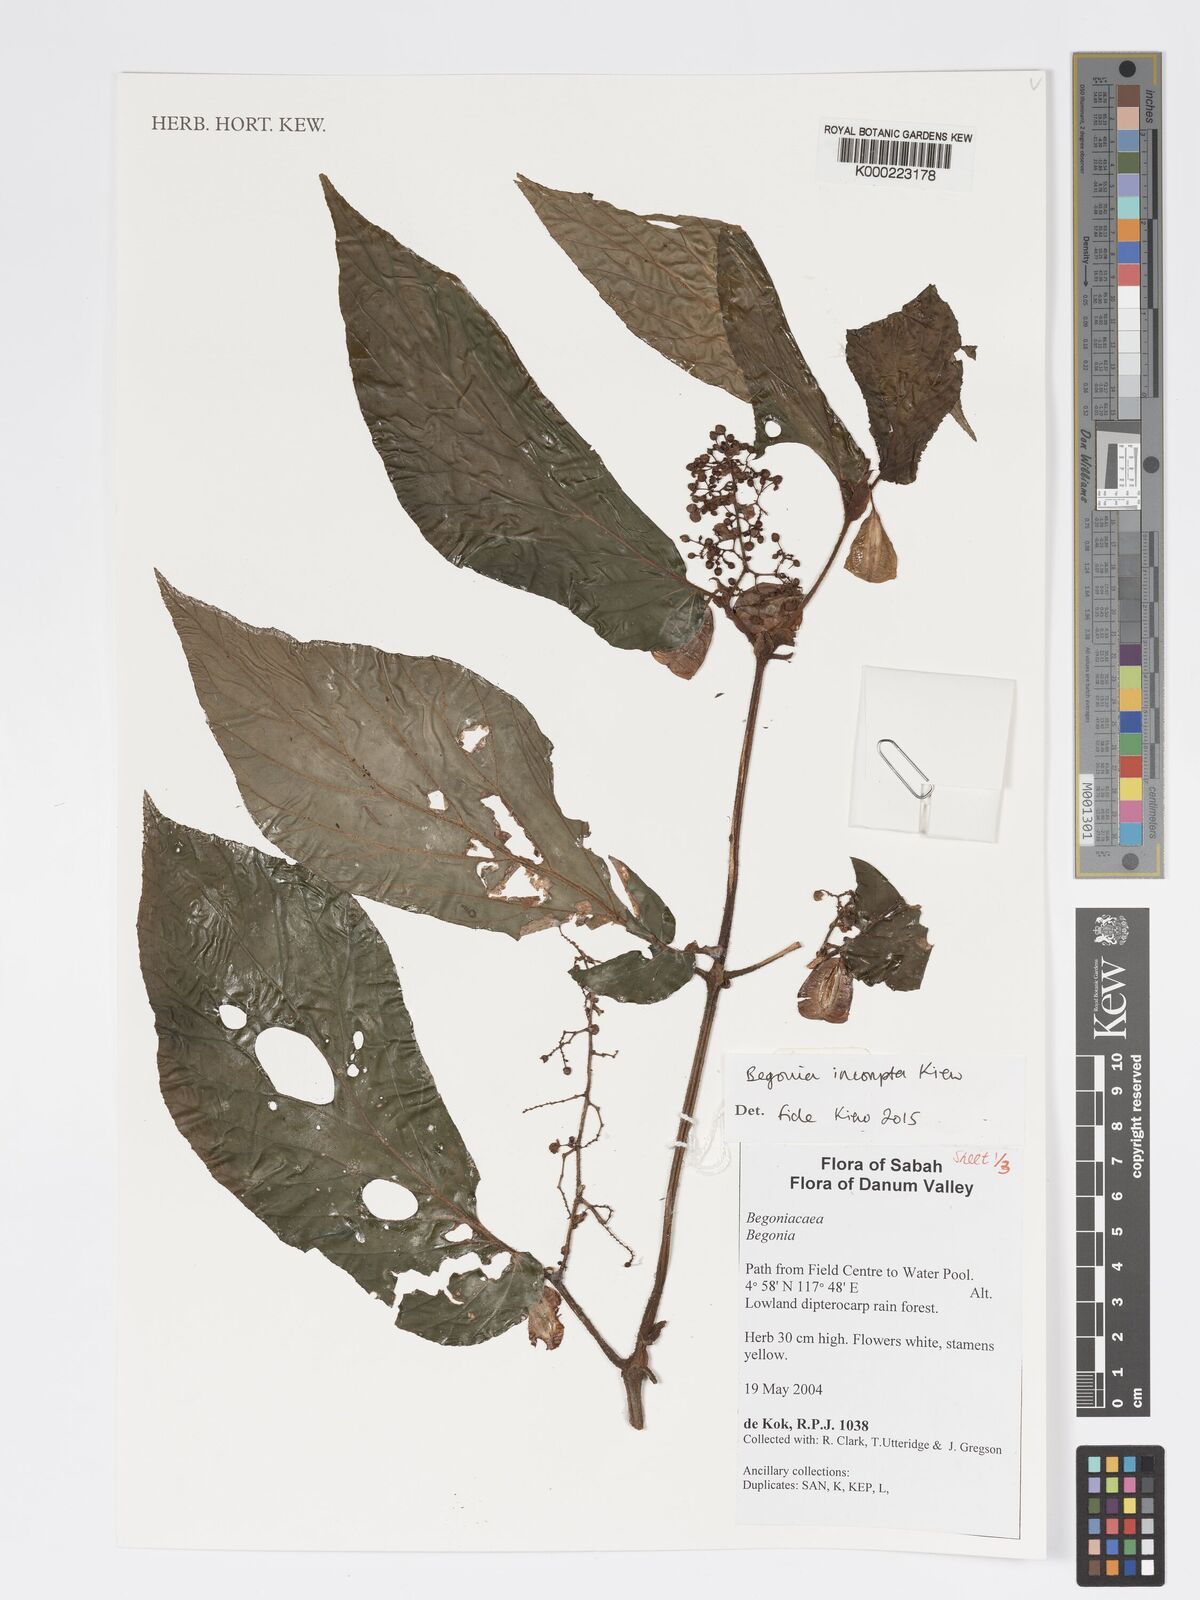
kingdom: Plantae
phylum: Tracheophyta
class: Magnoliopsida
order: Cucurbitales
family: Begoniaceae
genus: Begonia
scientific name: Begonia
